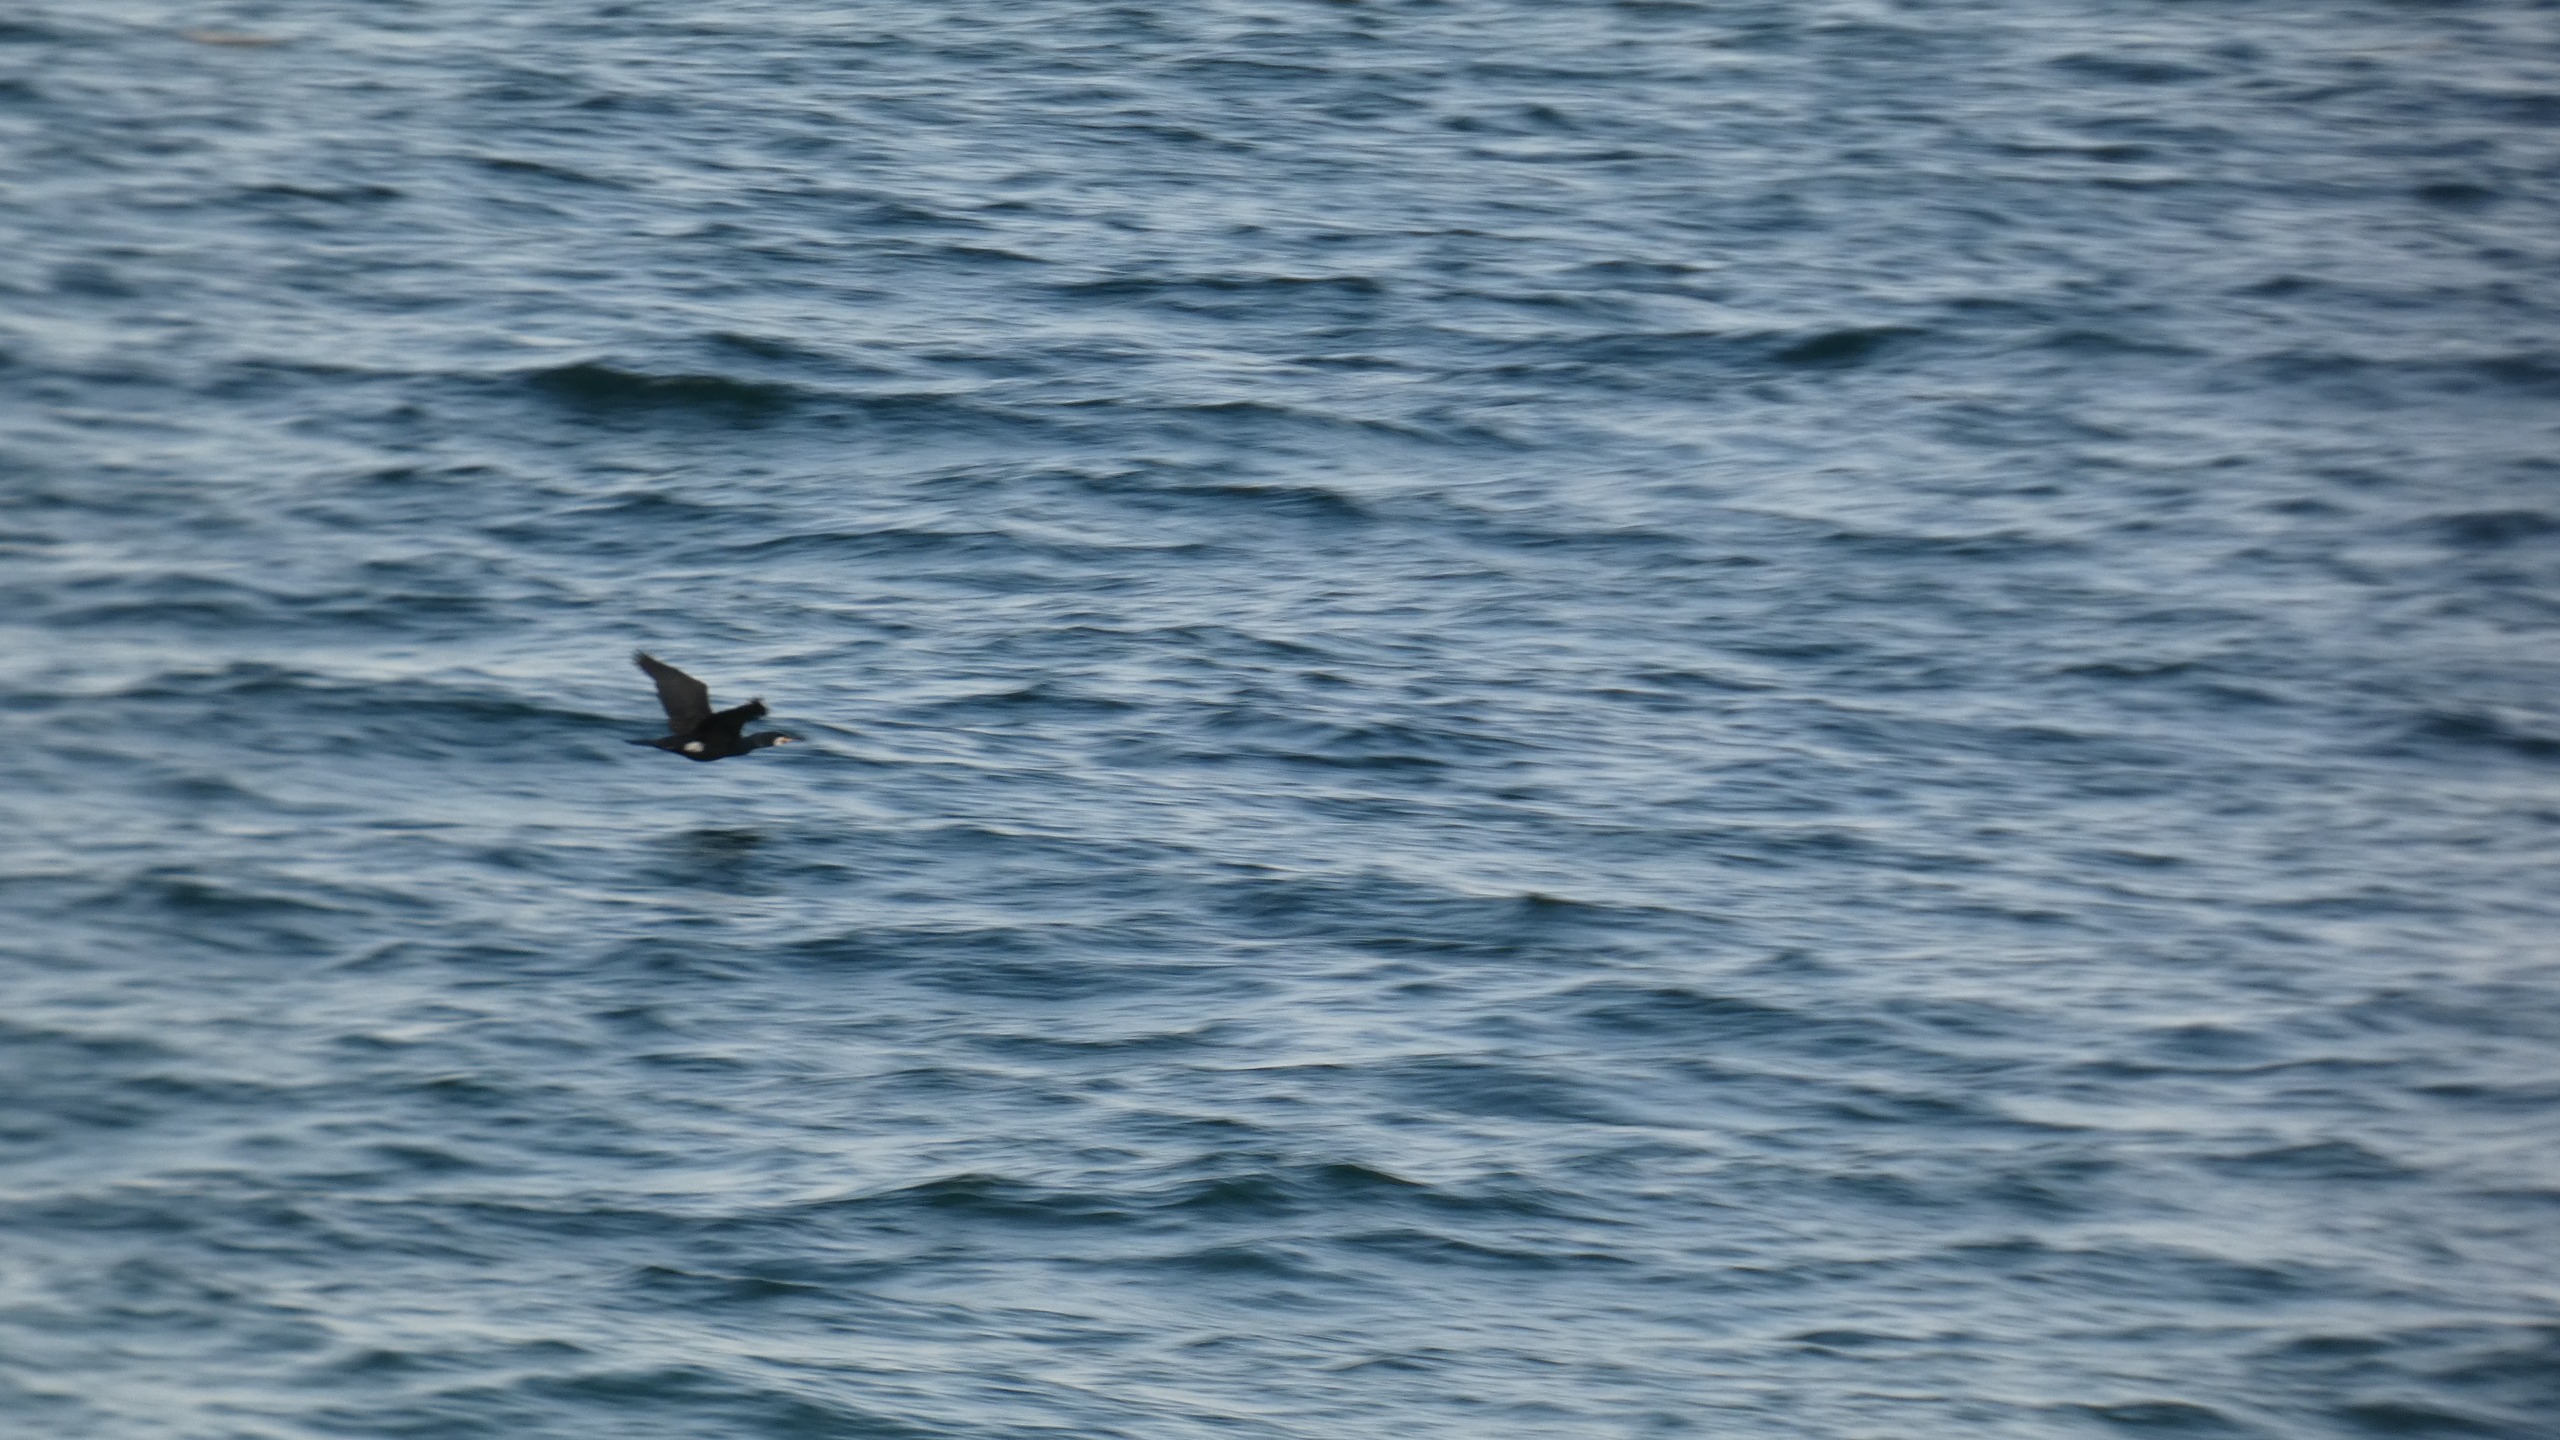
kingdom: Animalia
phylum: Chordata
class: Aves
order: Suliformes
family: Phalacrocoracidae
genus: Phalacrocorax
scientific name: Phalacrocorax carbo
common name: Skarv
